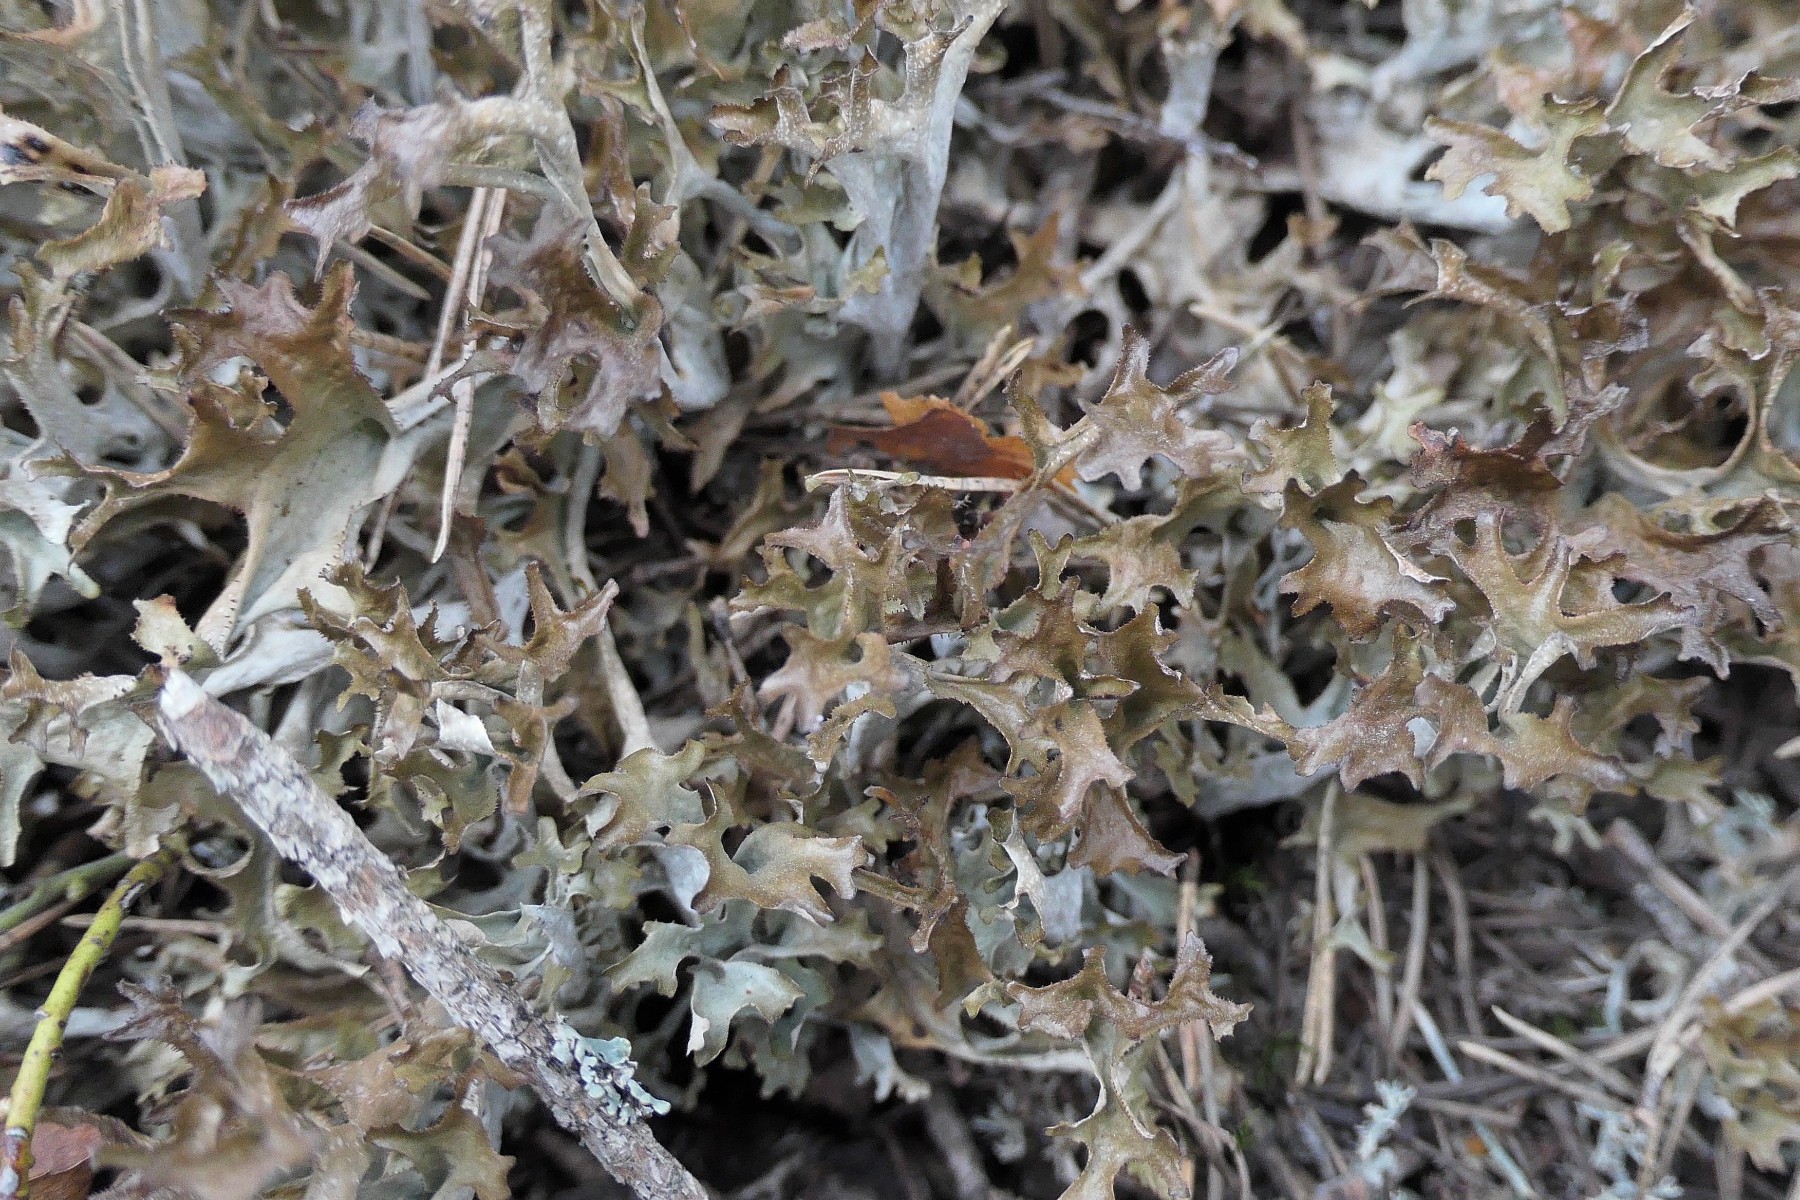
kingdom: Fungi
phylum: Ascomycota
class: Lecanoromycetes
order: Lecanorales
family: Parmeliaceae
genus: Cetraria
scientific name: Cetraria islandica
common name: islandsk kruslav
